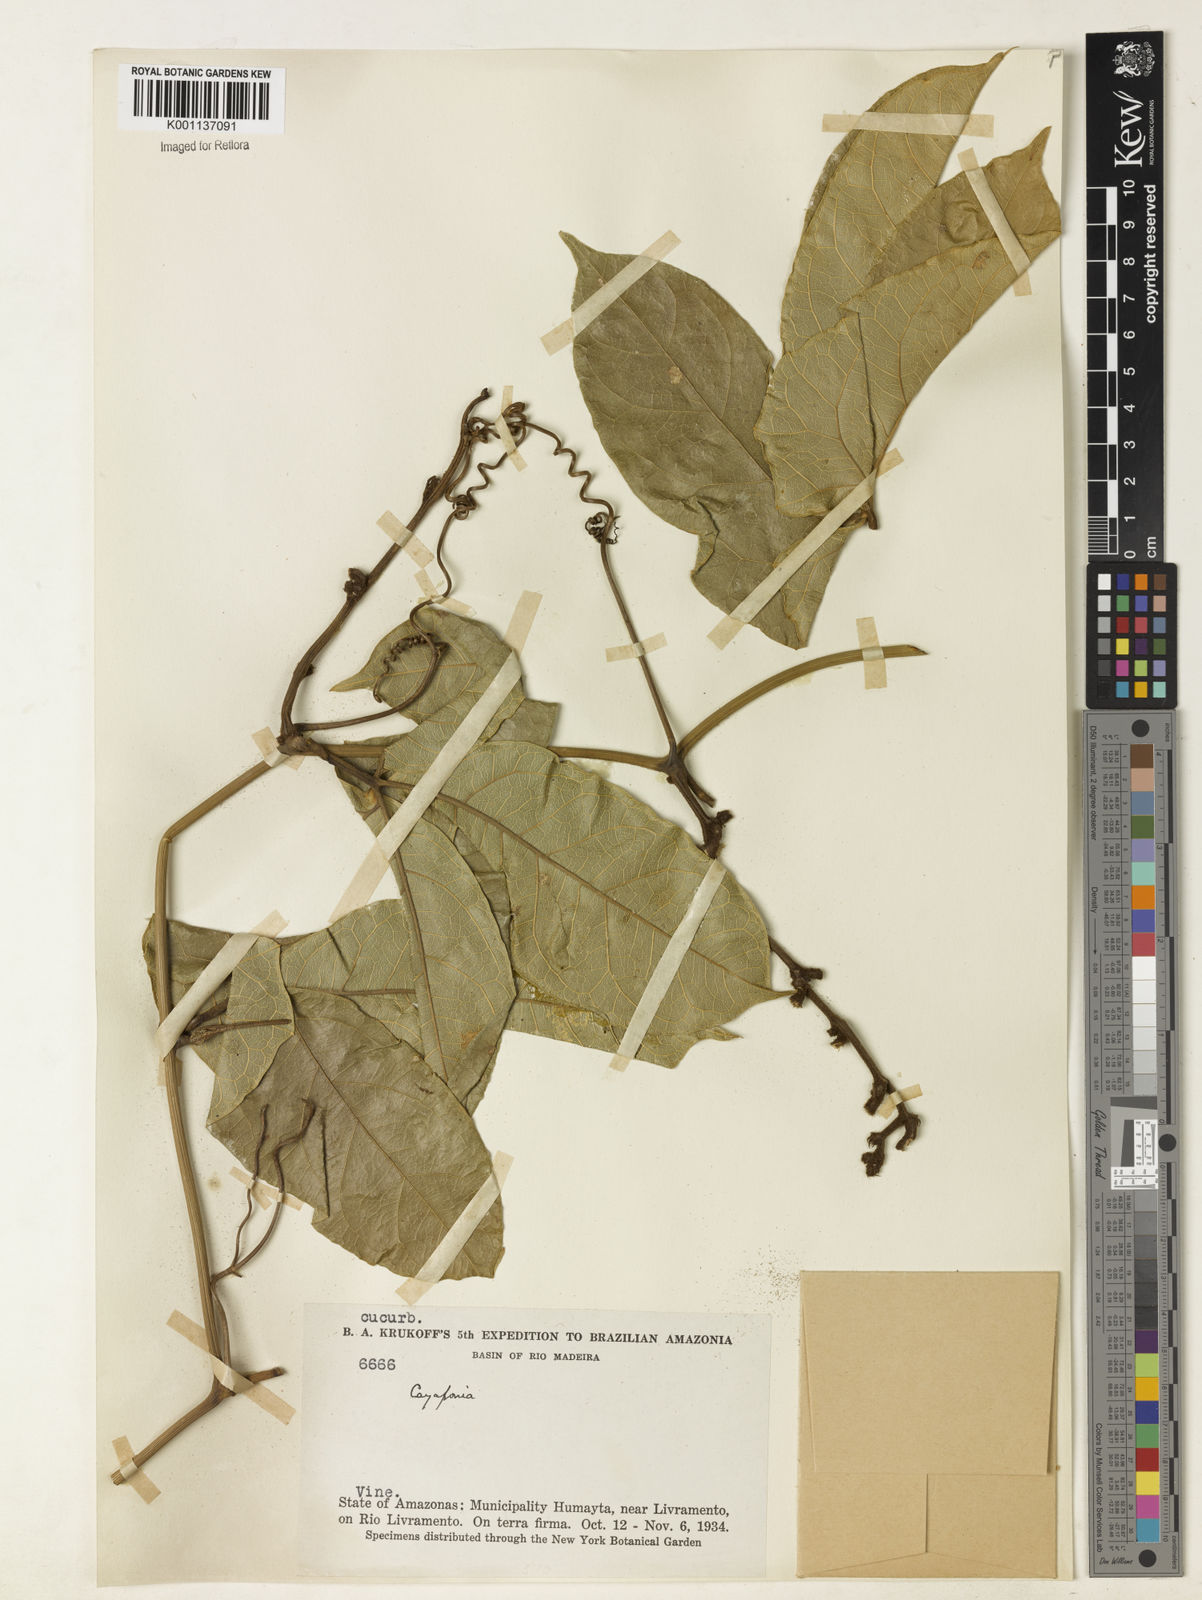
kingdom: Plantae
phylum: Tracheophyta
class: Magnoliopsida
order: Cucurbitales
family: Cucurbitaceae
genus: Cayaponia
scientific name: Cayaponia duckei
